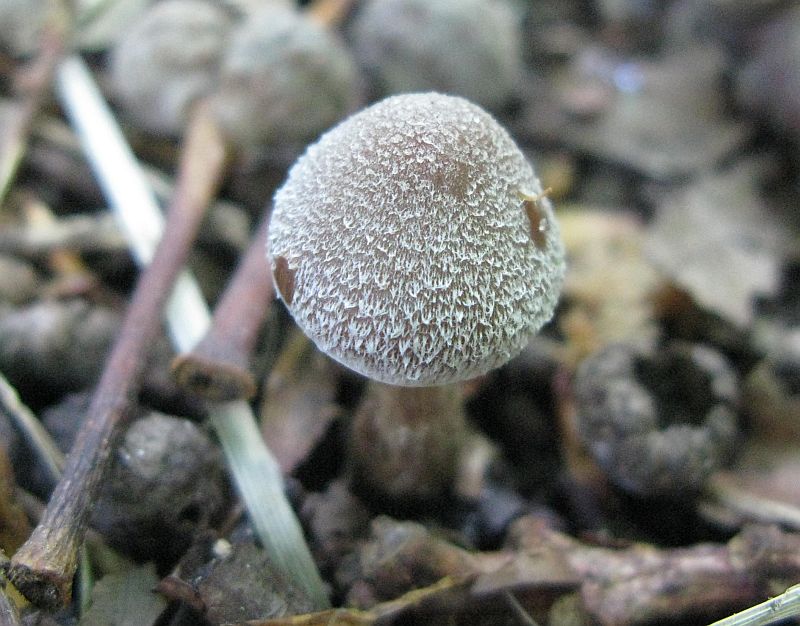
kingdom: Fungi
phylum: Basidiomycota
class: Agaricomycetes
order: Agaricales
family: Cortinariaceae
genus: Cortinarius
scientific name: Cortinarius
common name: pelargonie-slørhat
